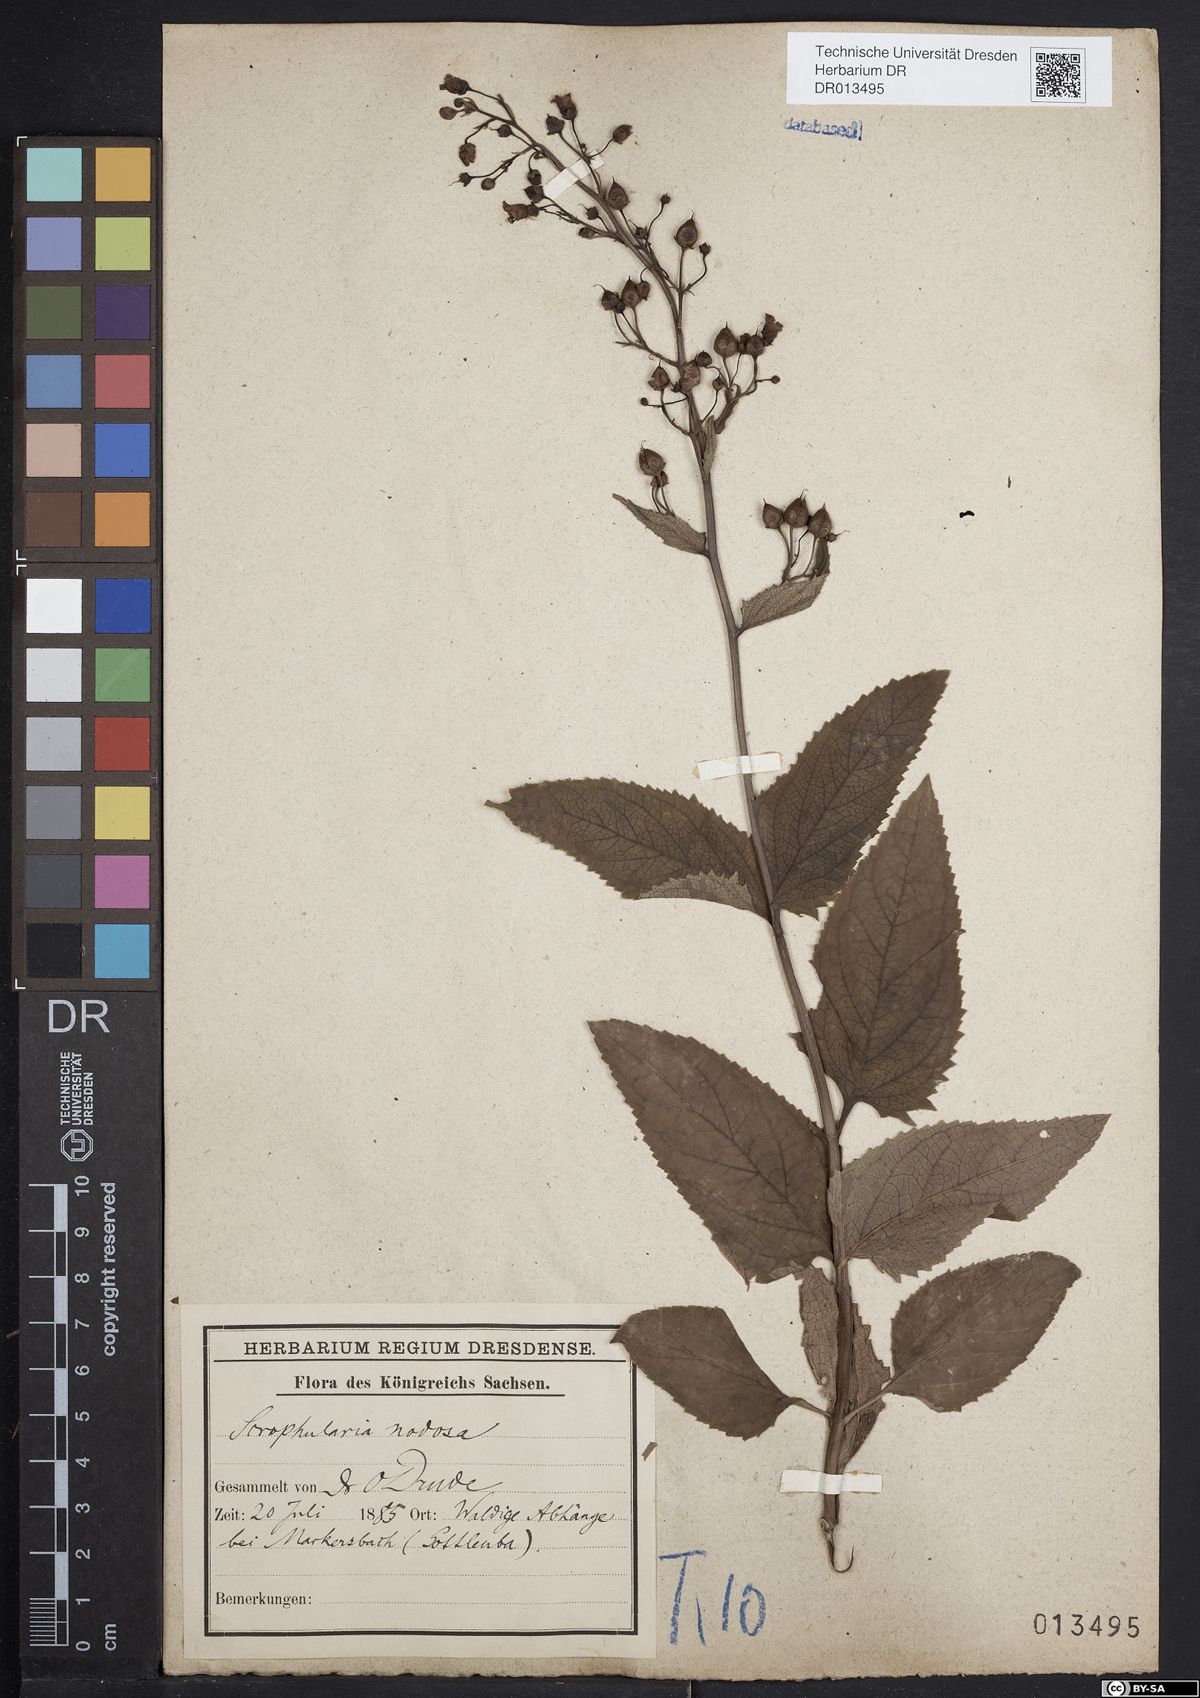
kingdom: Plantae
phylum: Tracheophyta
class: Magnoliopsida
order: Lamiales
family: Scrophulariaceae
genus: Scrophularia
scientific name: Scrophularia nodosa
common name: Common figwort
